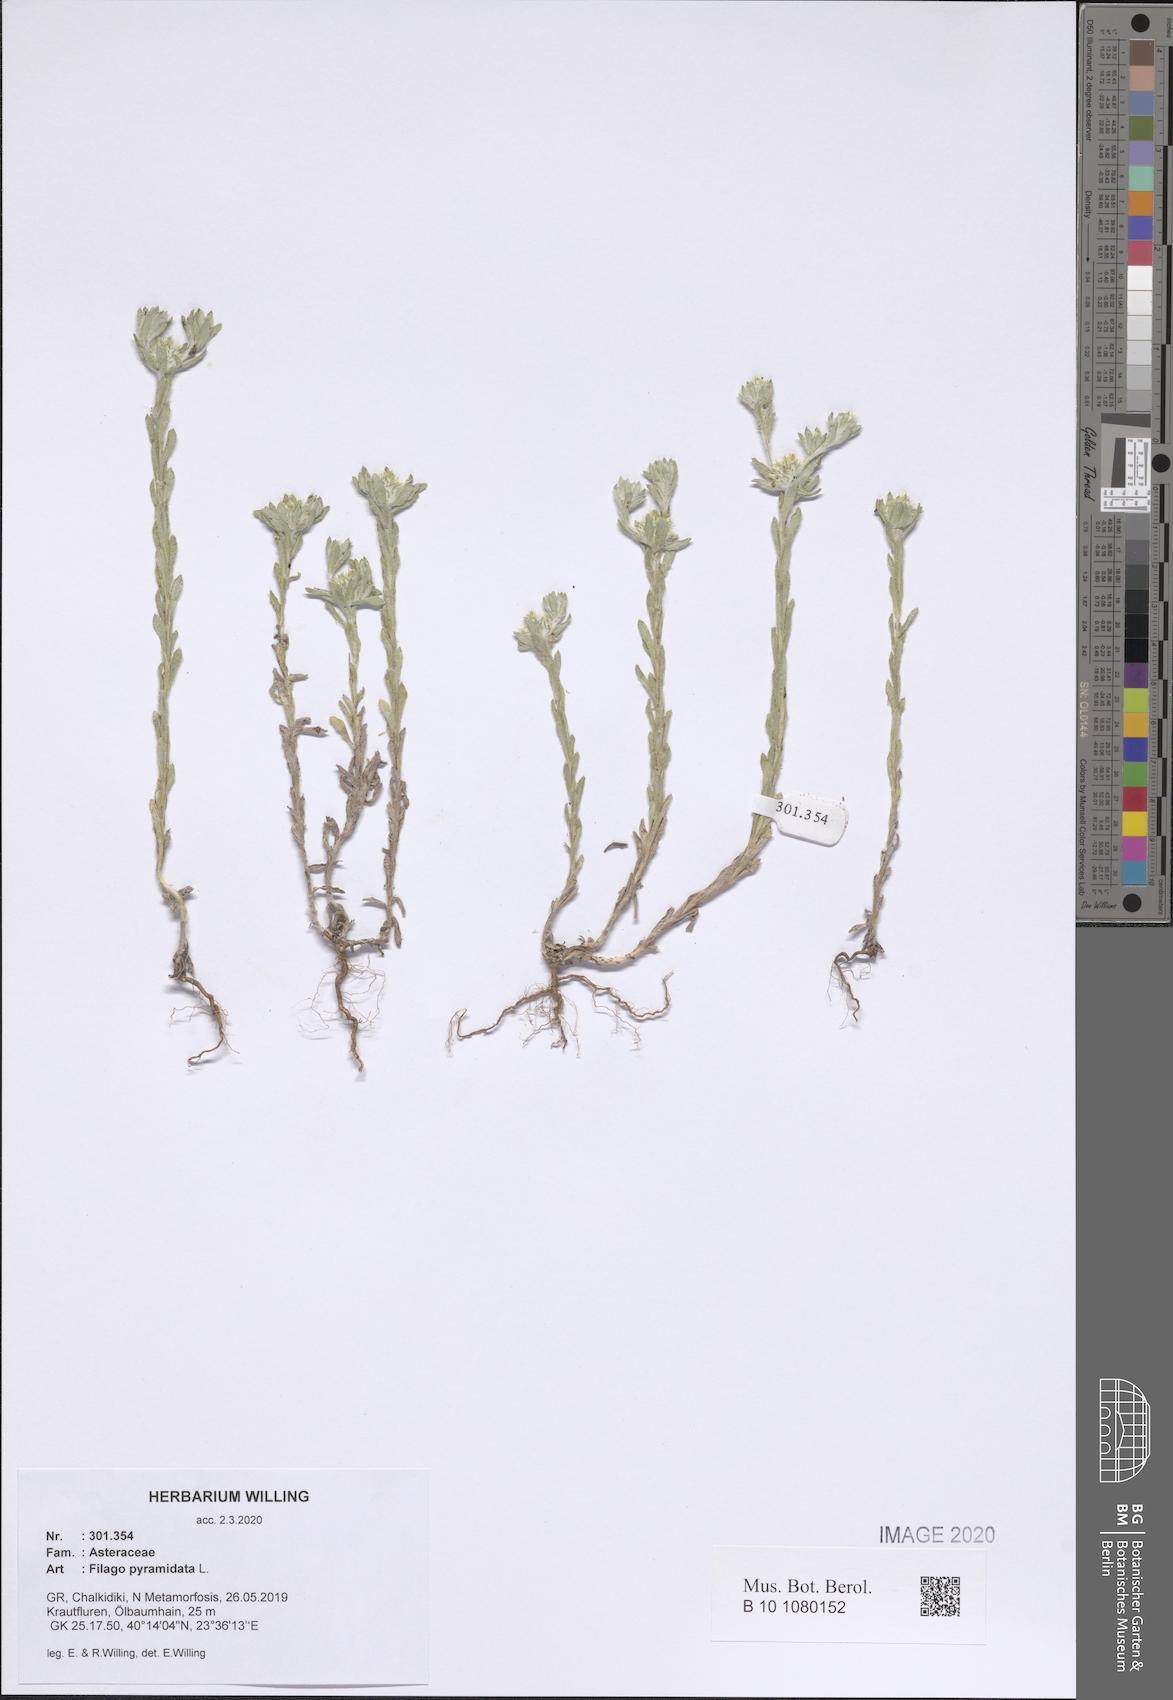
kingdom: Plantae
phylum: Tracheophyta
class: Magnoliopsida
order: Asterales
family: Asteraceae
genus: Filago
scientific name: Filago pyramidata
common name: Broad-leaved cudweed
